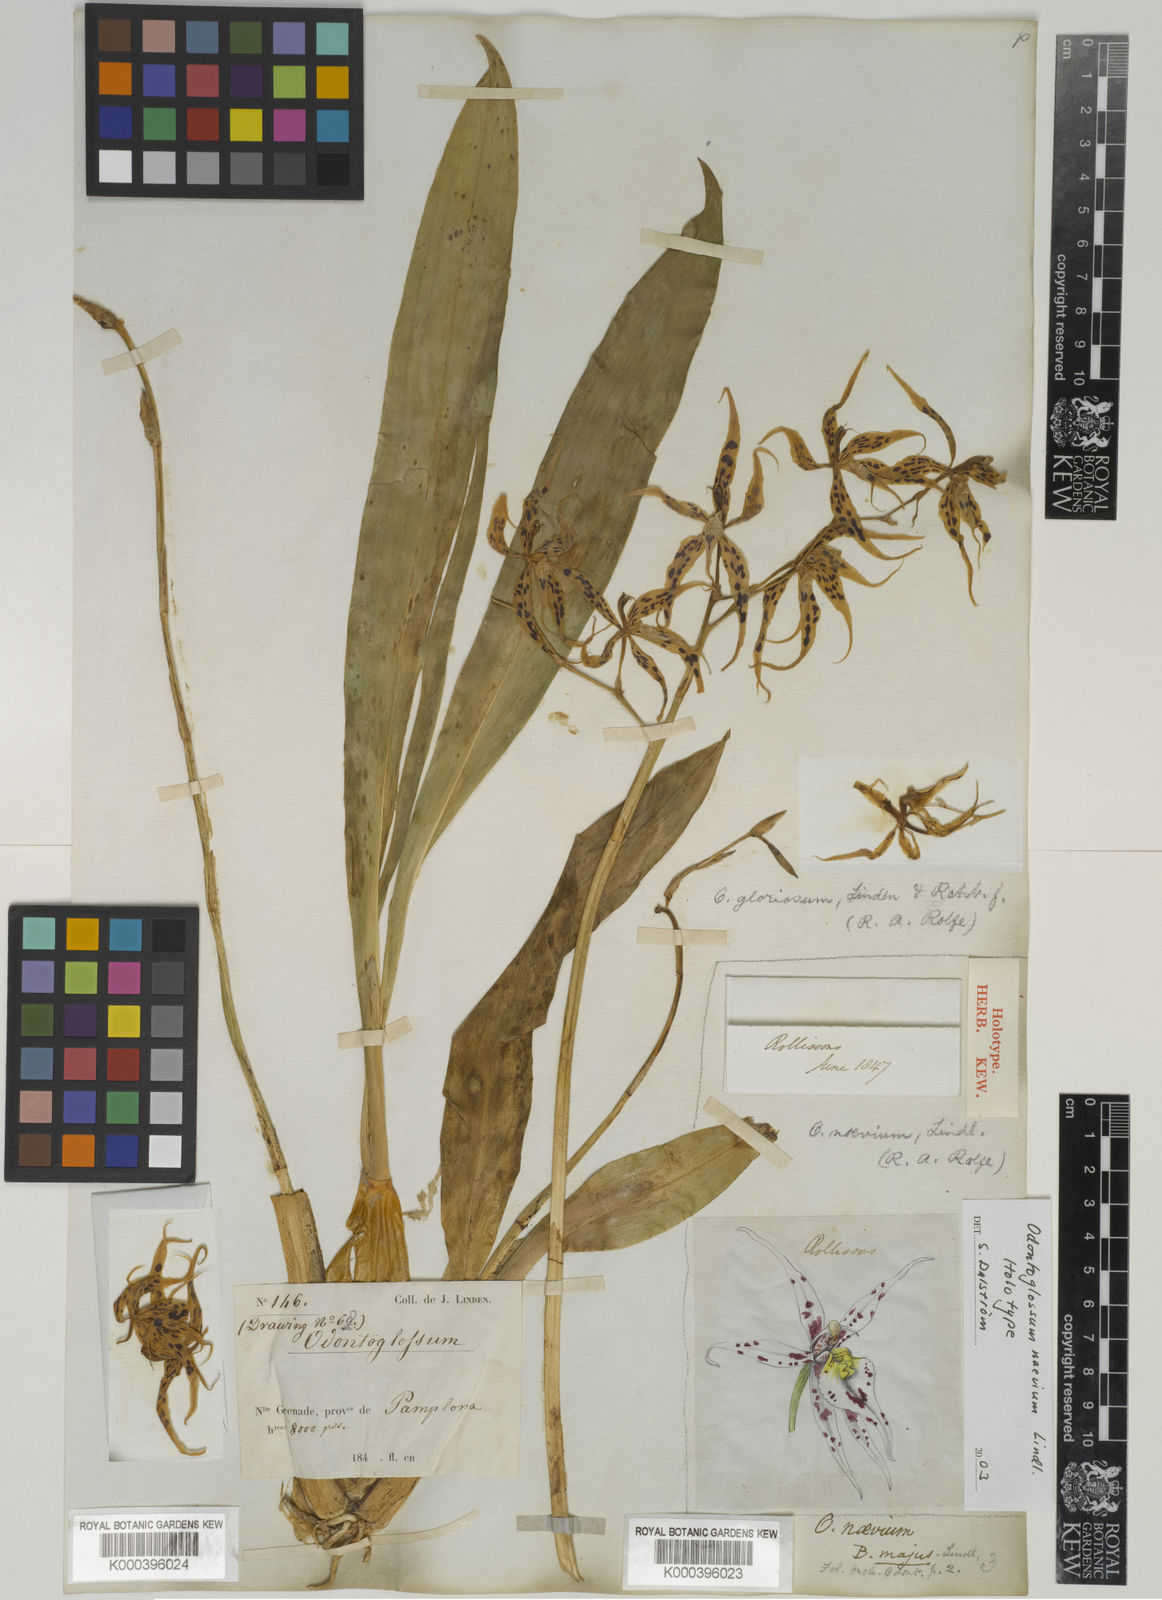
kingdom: Plantae
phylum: Tracheophyta
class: Liliopsida
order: Asparagales
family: Orchidaceae
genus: Oncidium
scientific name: Oncidium naevium
